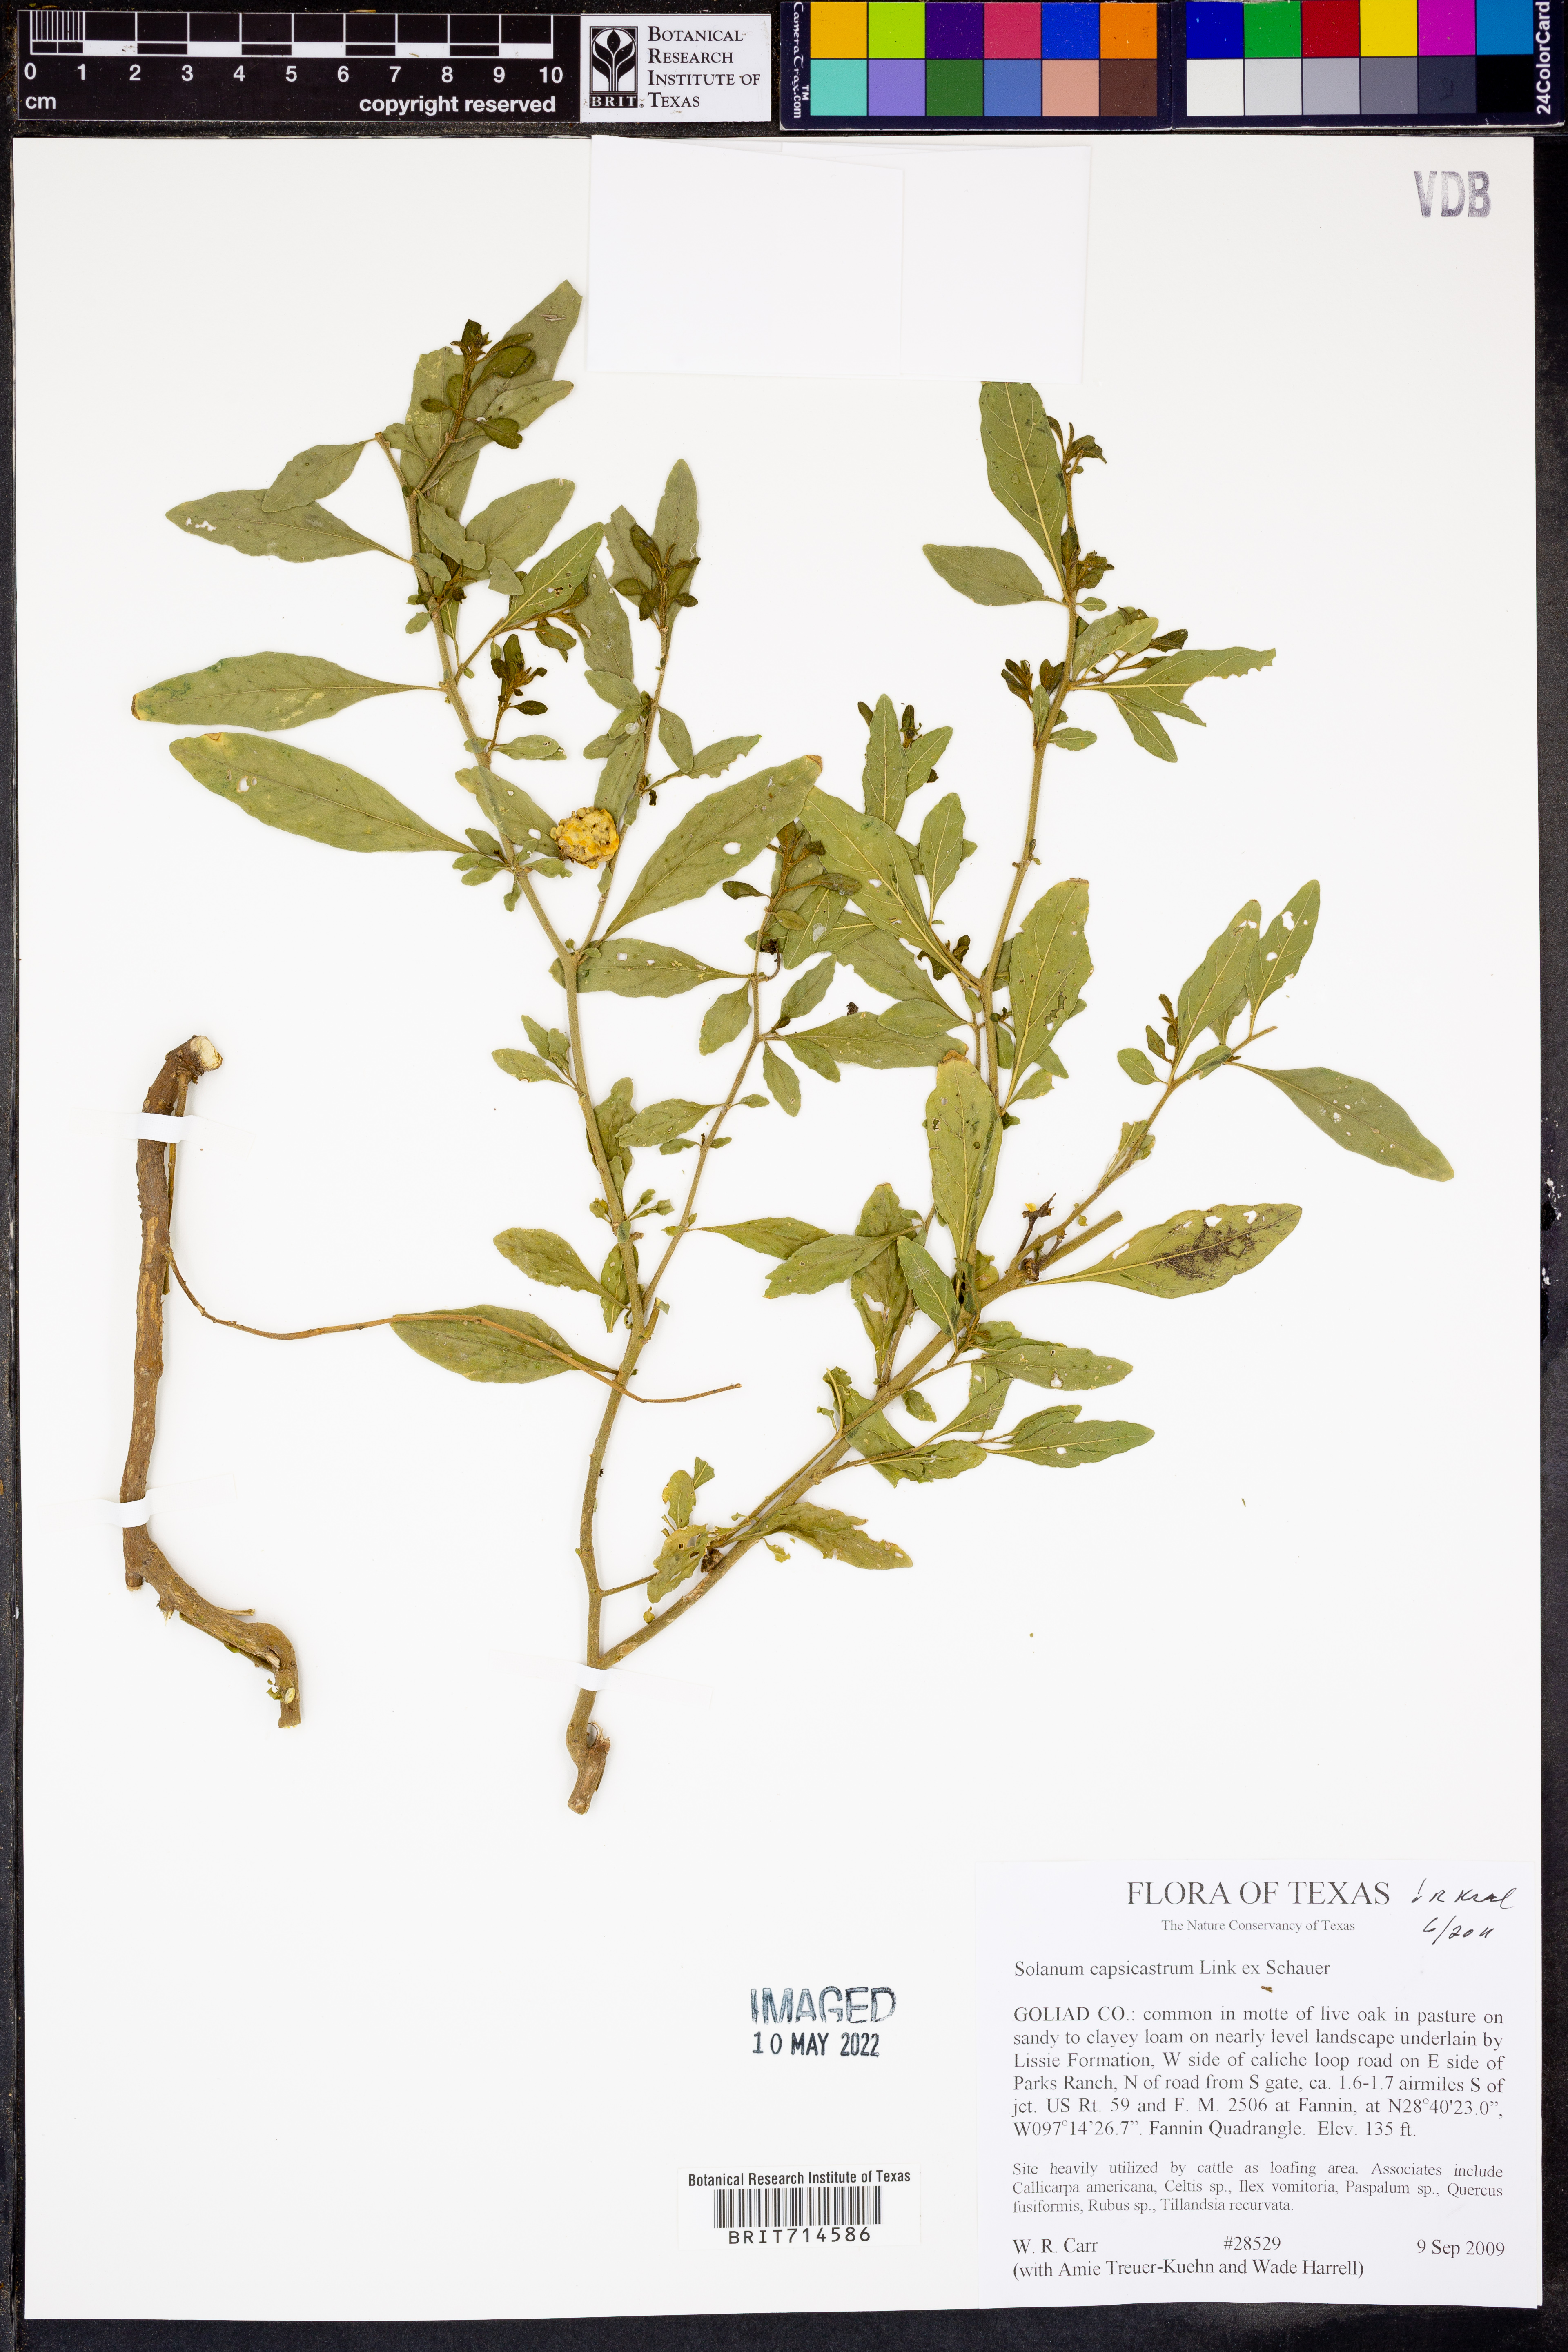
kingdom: Plantae
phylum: Tracheophyta
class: Magnoliopsida
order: Solanales
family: Solanaceae
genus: Solanum
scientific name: Solanum pseudocapsicum
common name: Jerusalem cherry
